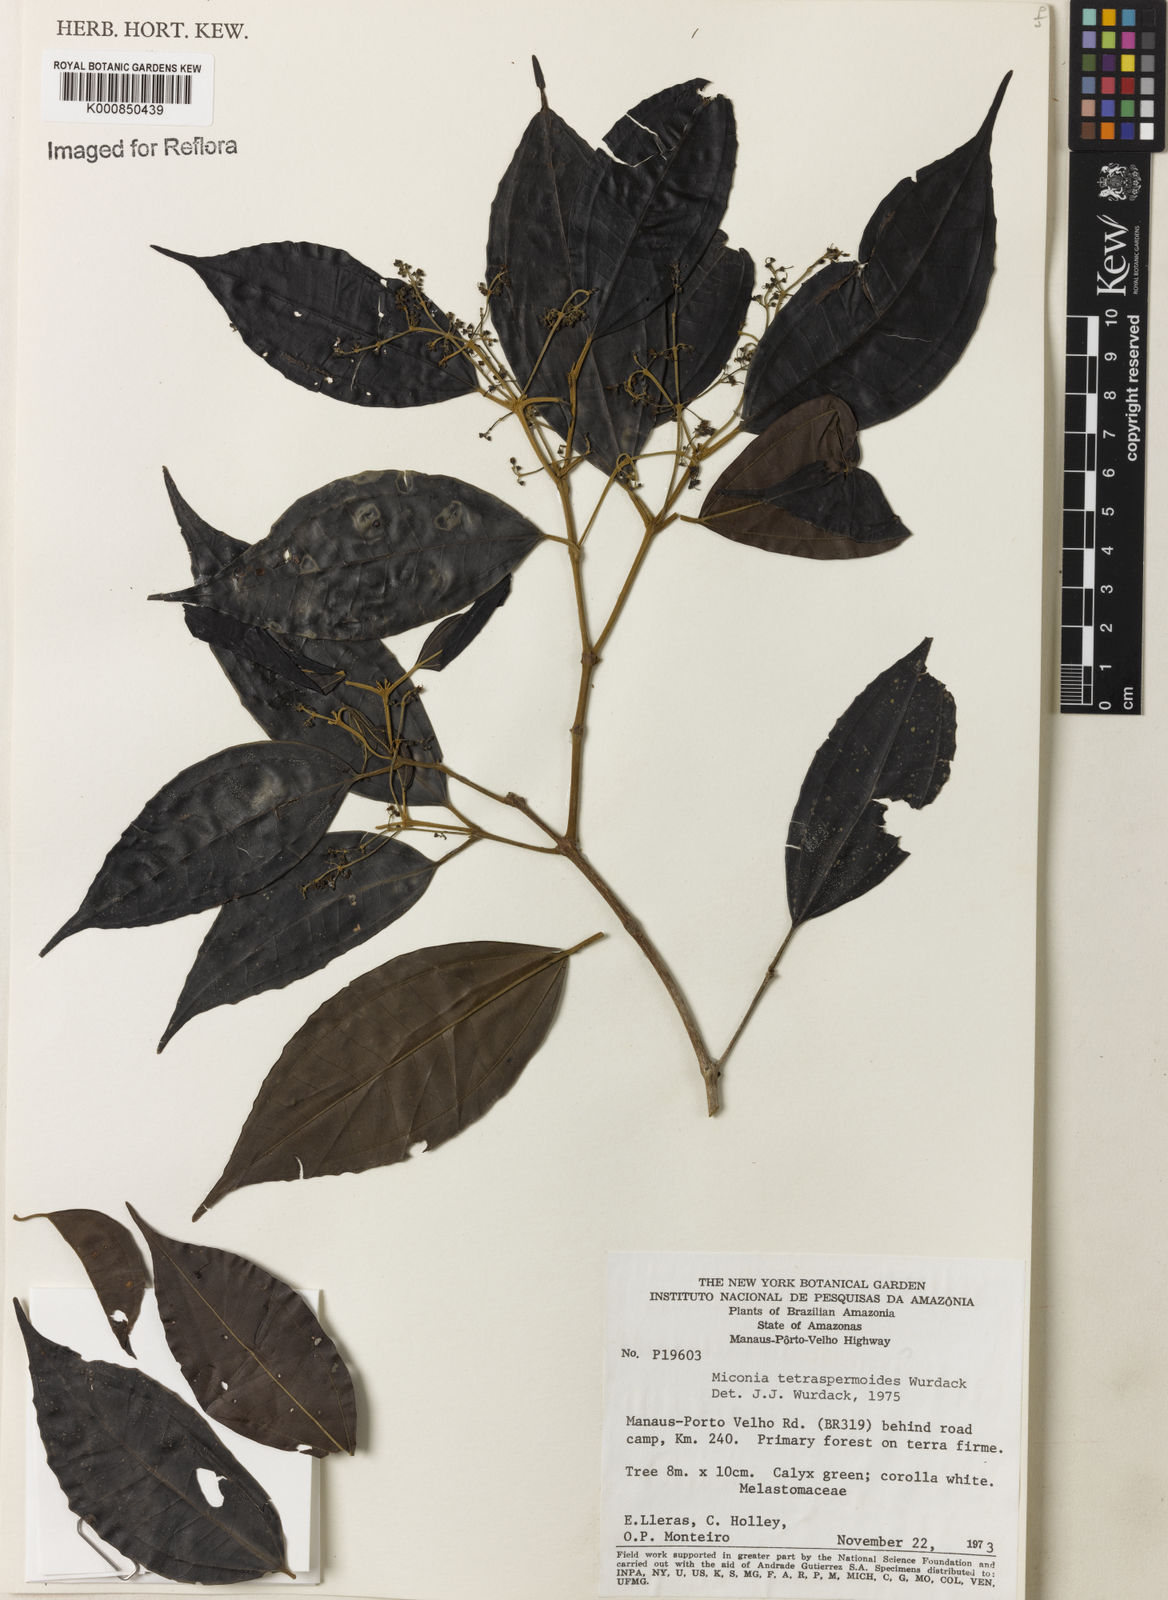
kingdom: Plantae
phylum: Tracheophyta
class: Magnoliopsida
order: Myrtales
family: Melastomataceae
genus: Miconia
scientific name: Miconia tetraspermoides
